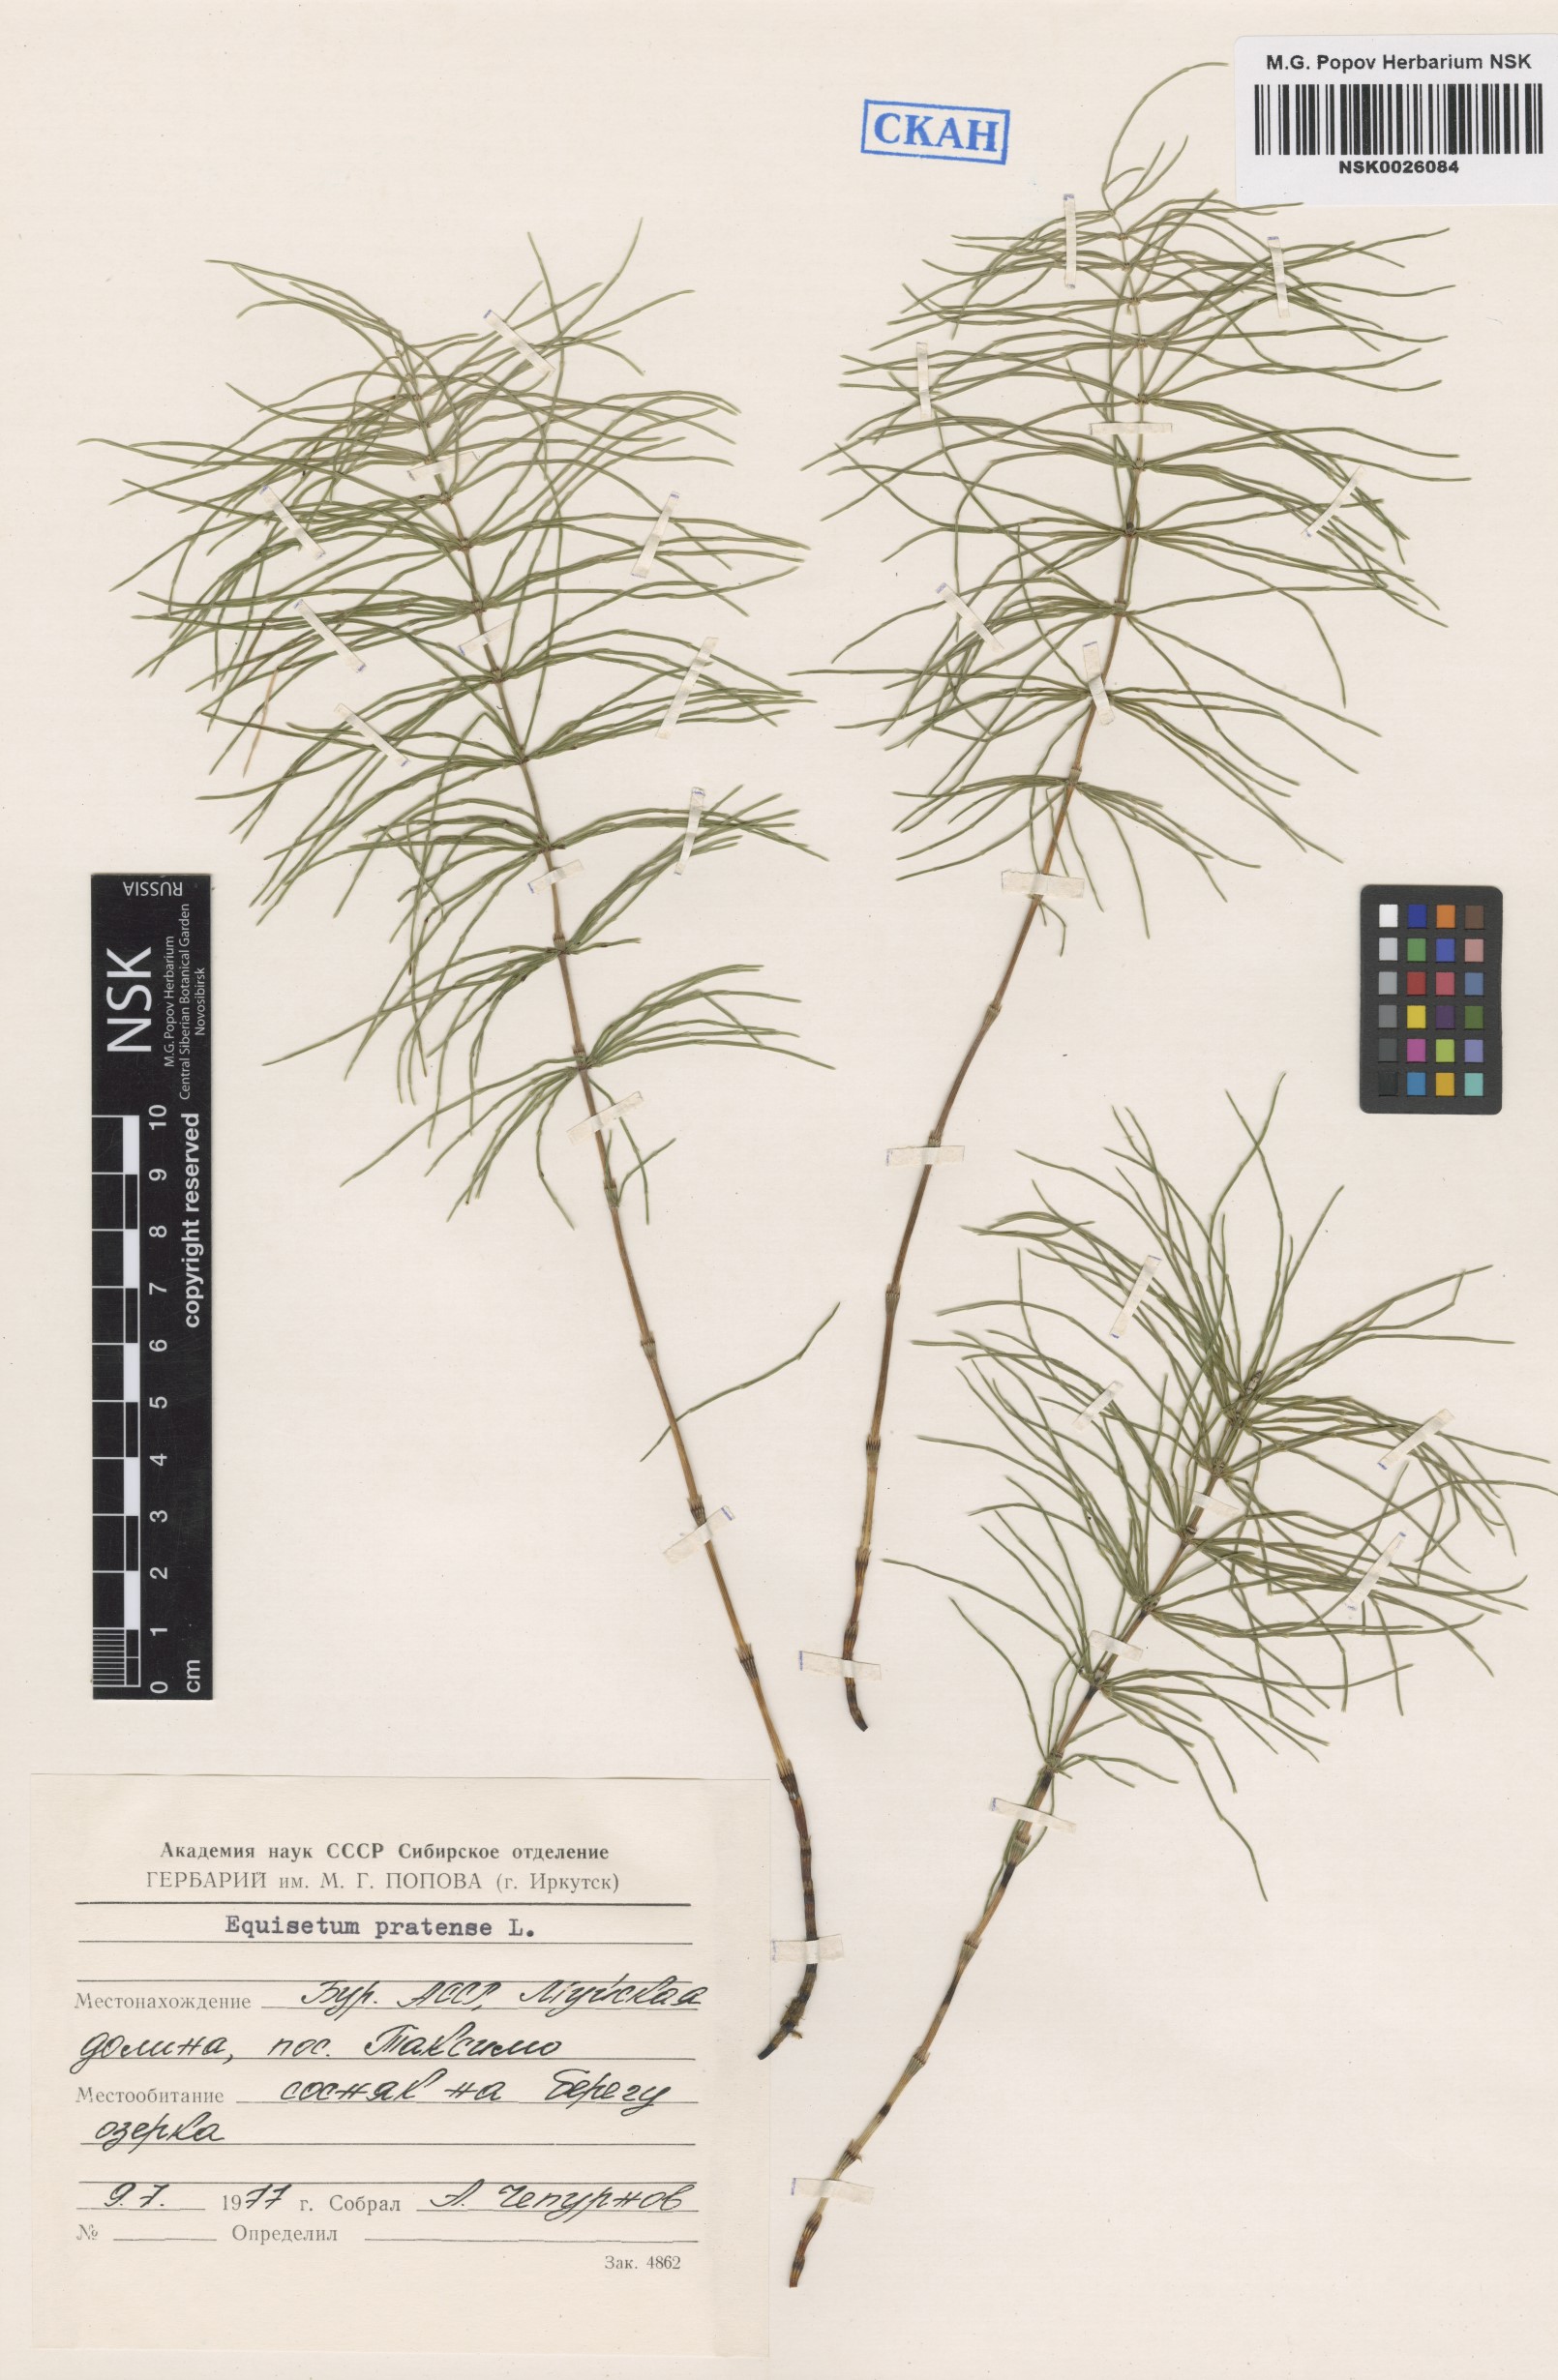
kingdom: Plantae
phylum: Tracheophyta
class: Polypodiopsida
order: Equisetales
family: Equisetaceae
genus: Equisetum
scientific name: Equisetum pratense
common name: Meadow horsetail
